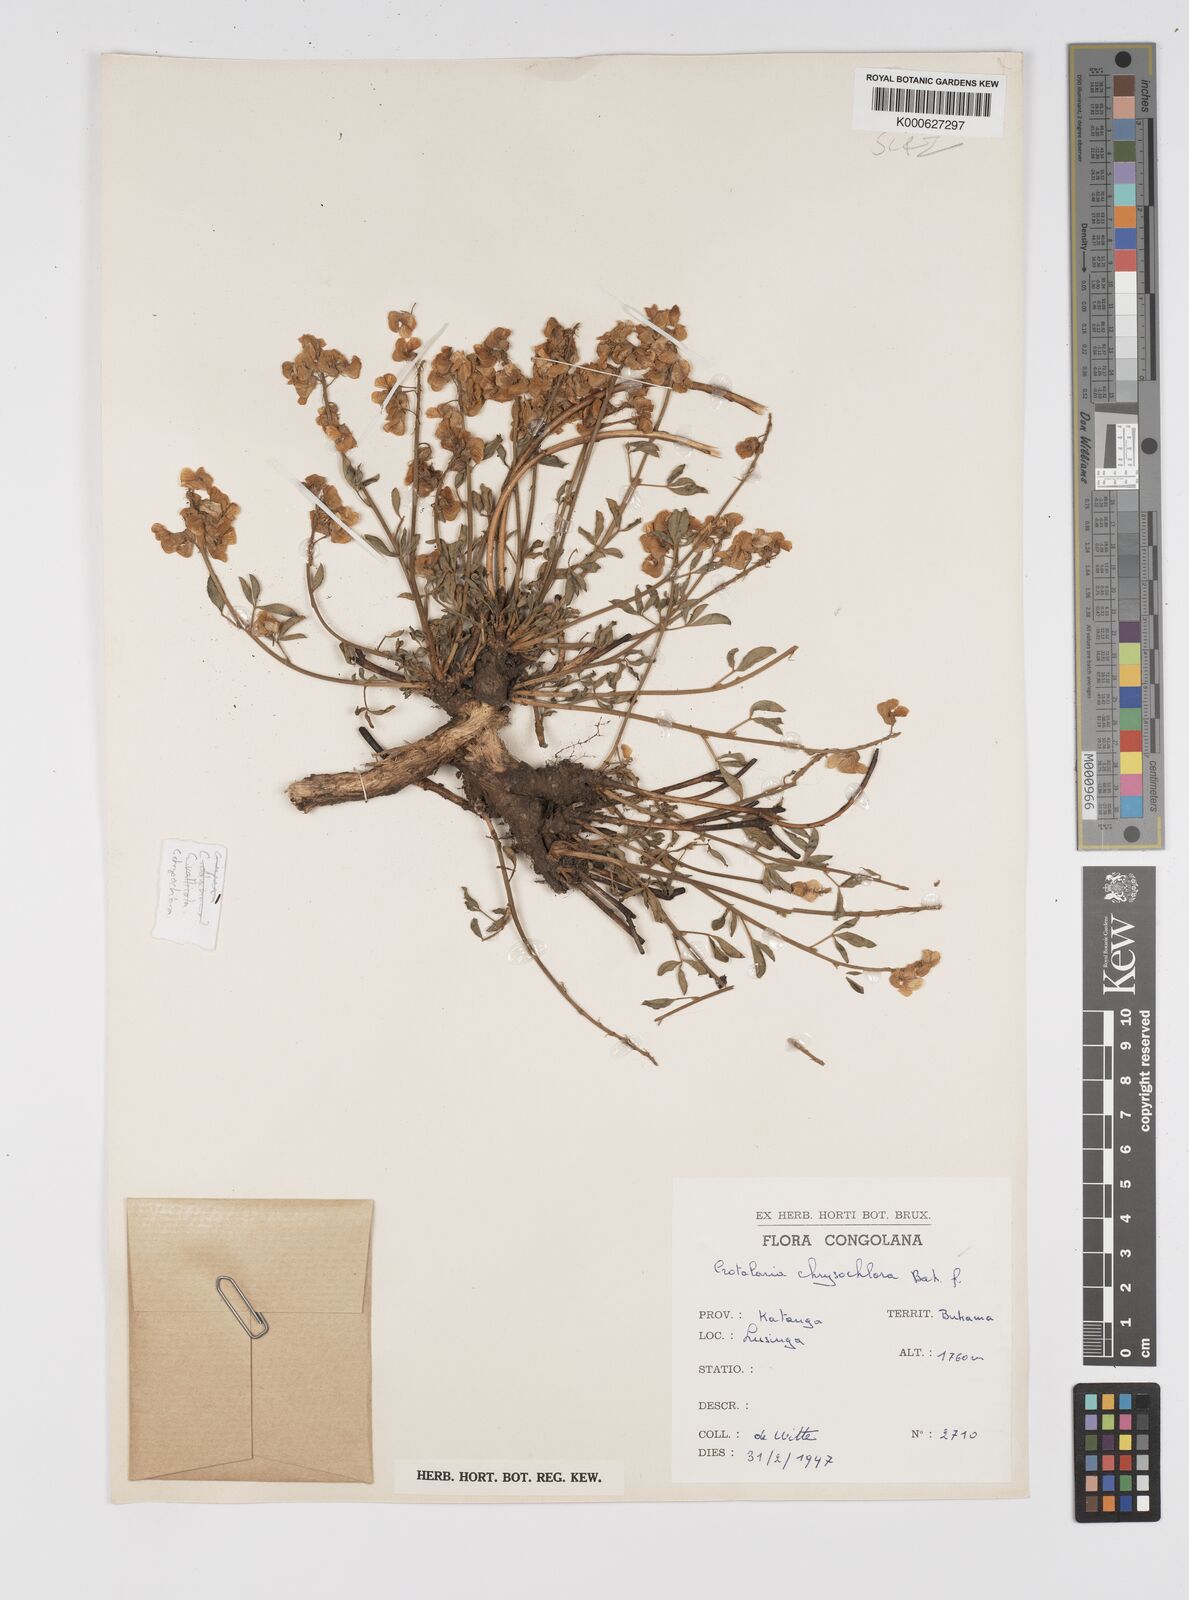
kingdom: Plantae
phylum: Tracheophyta
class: Magnoliopsida
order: Fabales
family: Fabaceae
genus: Crotalaria
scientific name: Crotalaria chrysochlora ex
